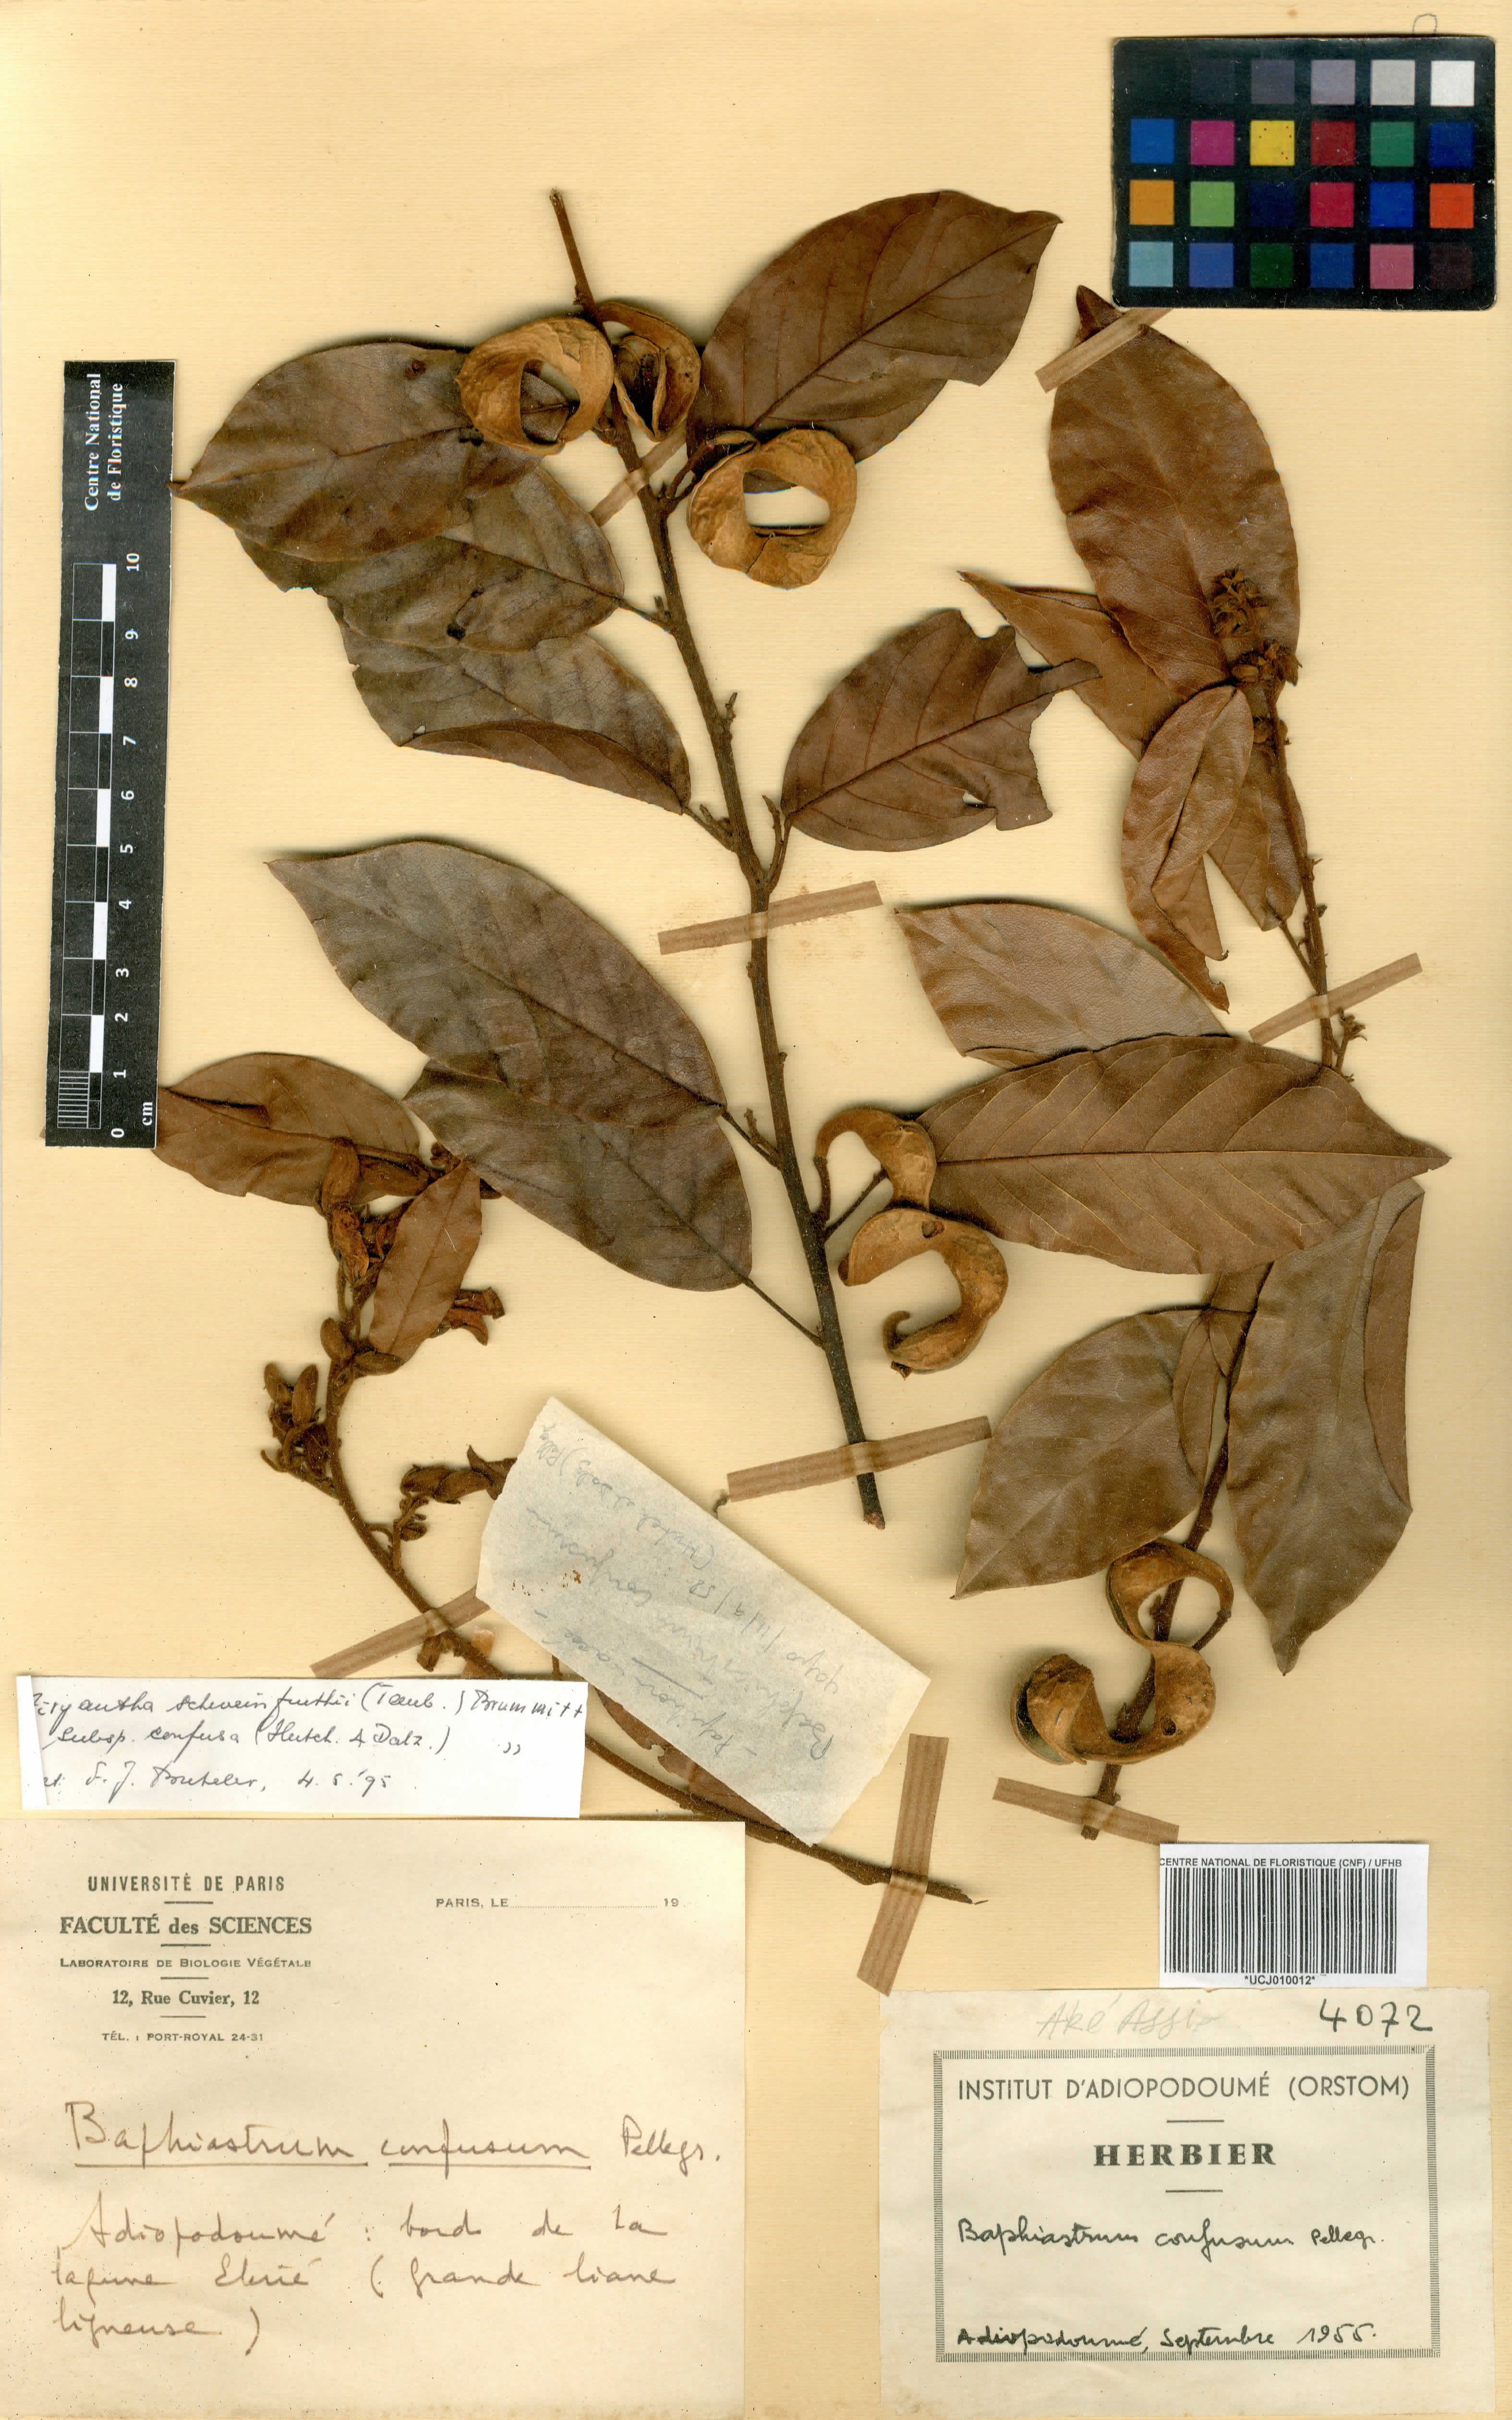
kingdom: Plantae
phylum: Tracheophyta
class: Magnoliopsida
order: Fabales
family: Fabaceae
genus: Airyantha
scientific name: Airyantha schweinfurthii
